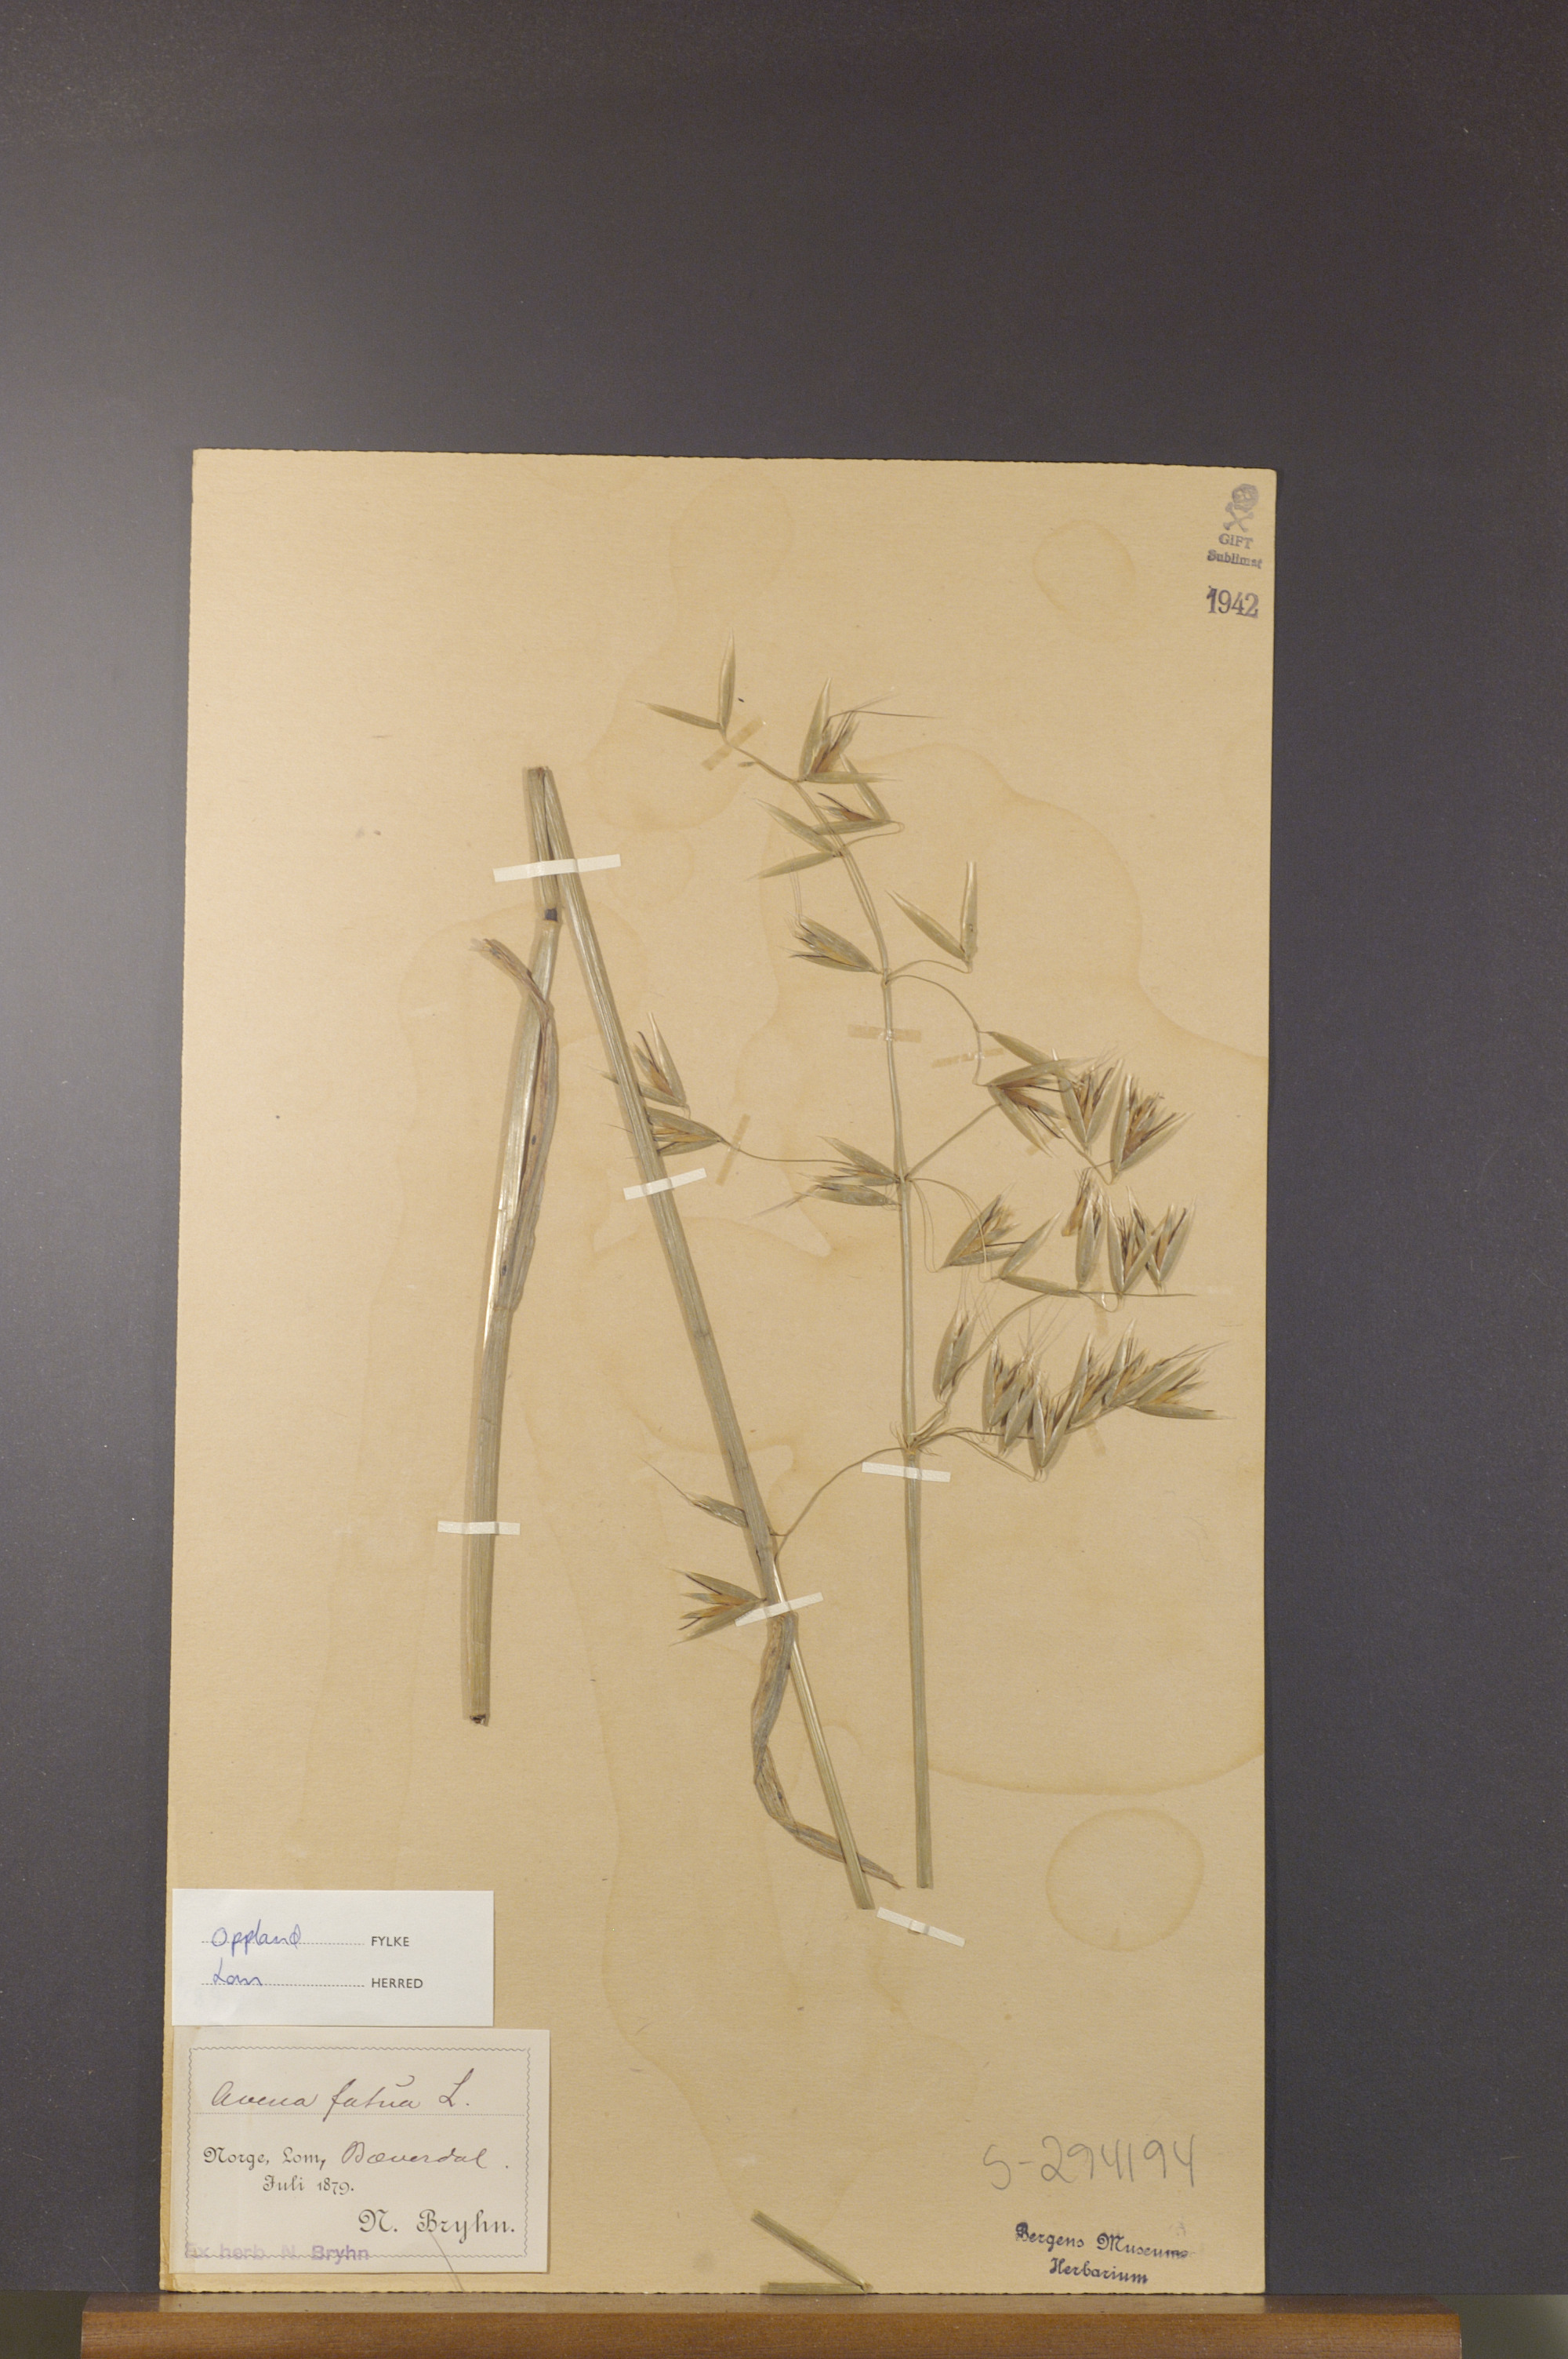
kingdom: Plantae
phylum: Tracheophyta
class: Liliopsida
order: Poales
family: Poaceae
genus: Avena
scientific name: Avena fatua
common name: Wild oat
